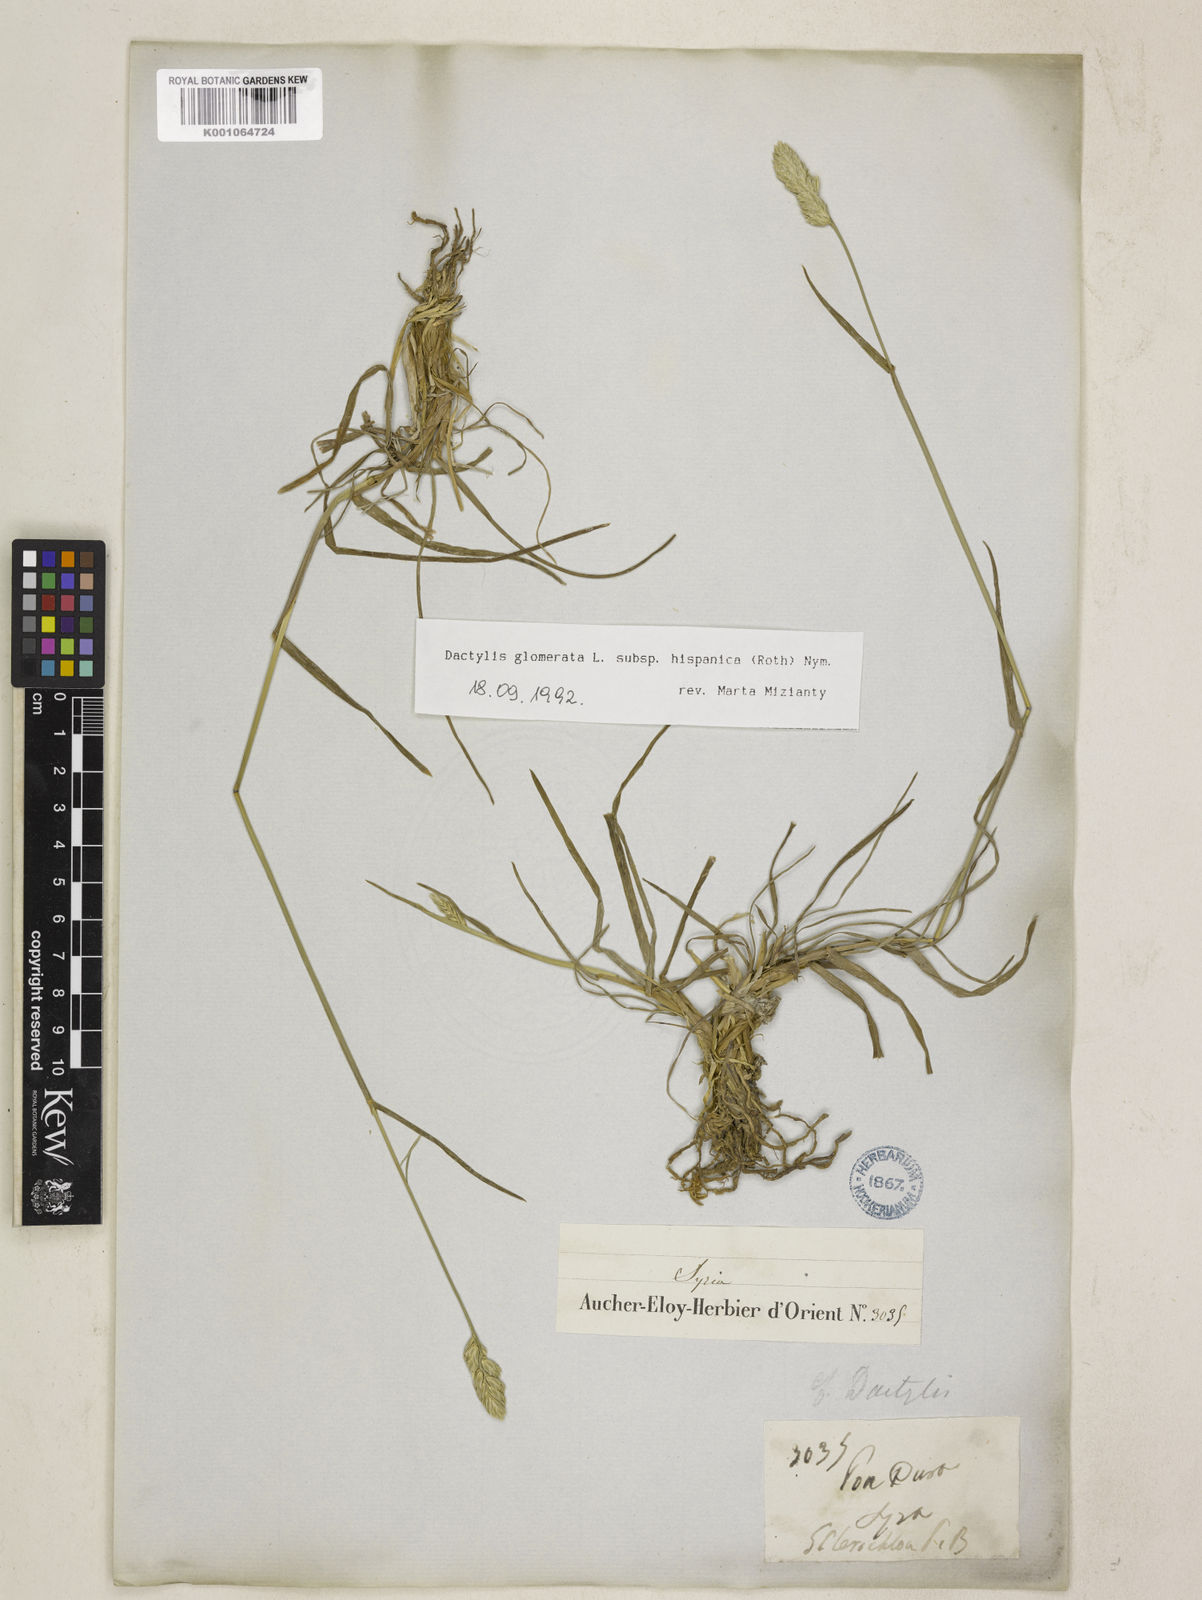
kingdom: Plantae
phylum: Tracheophyta
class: Liliopsida
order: Poales
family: Poaceae
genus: Dactylis
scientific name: Dactylis glomerata
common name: Orchardgrass
